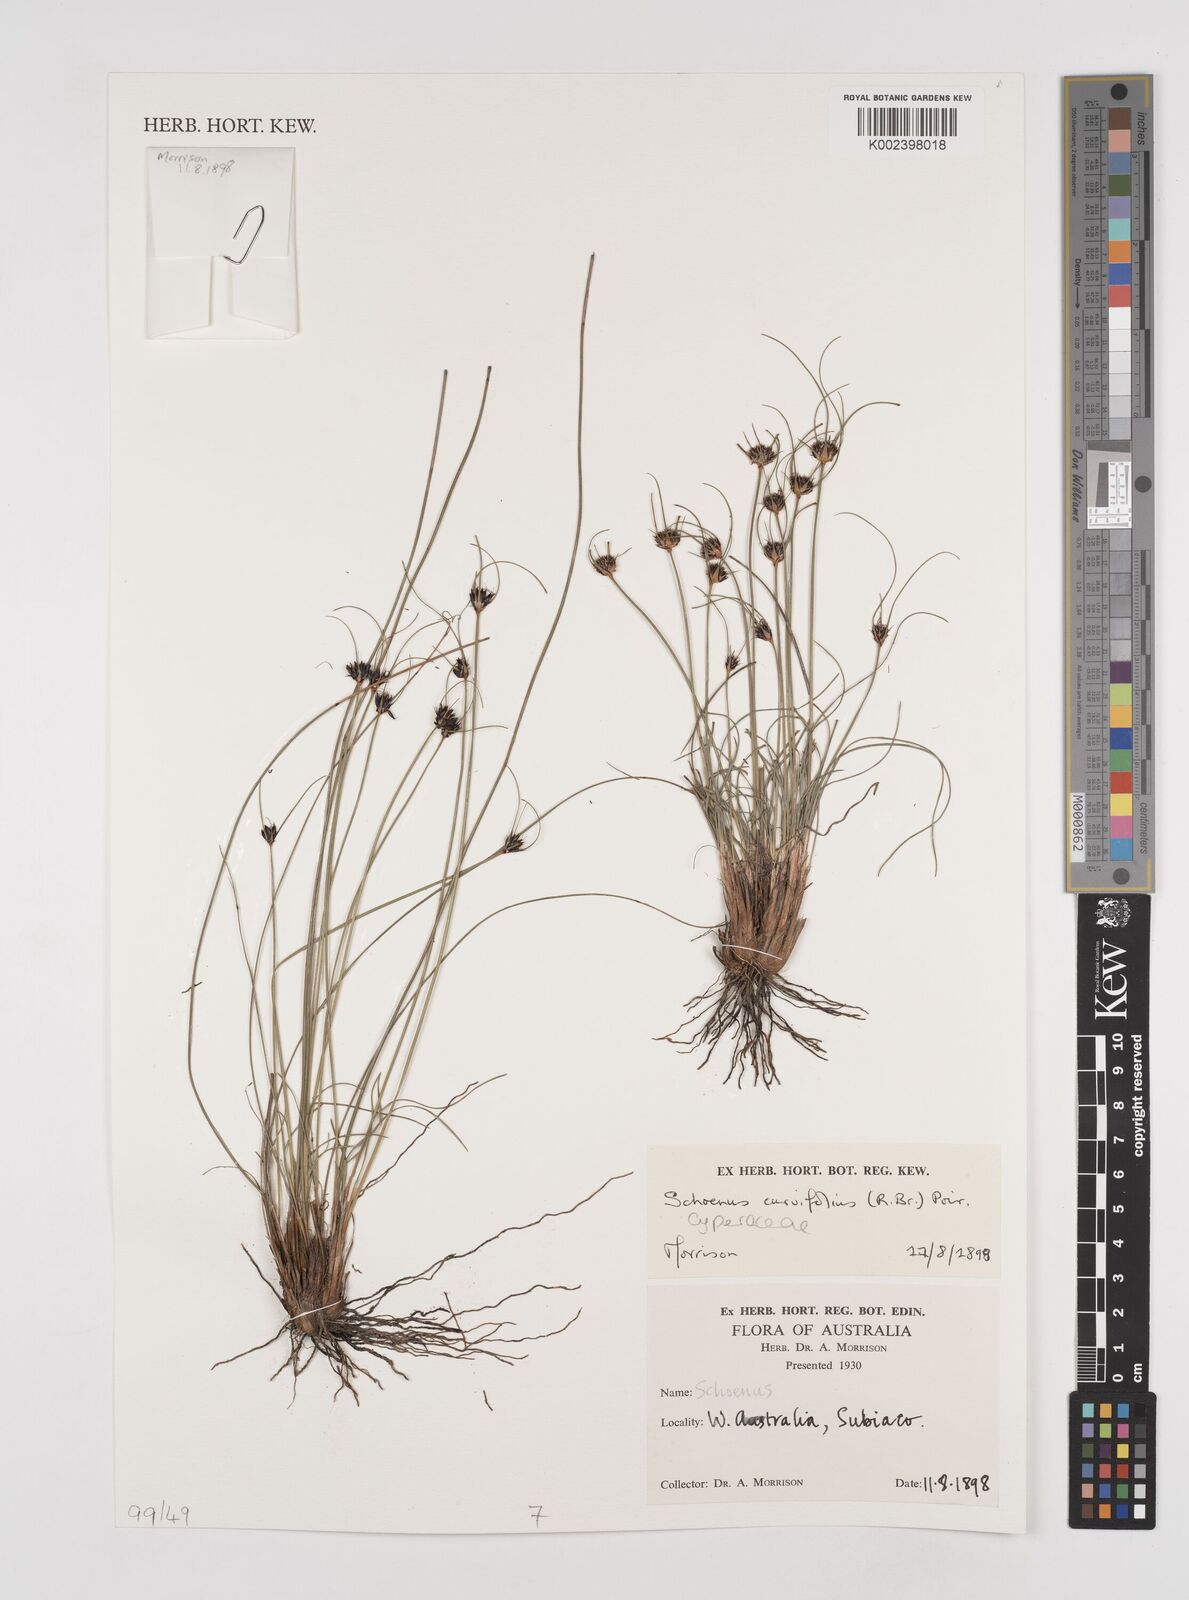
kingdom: Plantae
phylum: Tracheophyta
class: Liliopsida
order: Poales
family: Cyperaceae
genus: Schoenus
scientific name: Schoenus curvifolius
